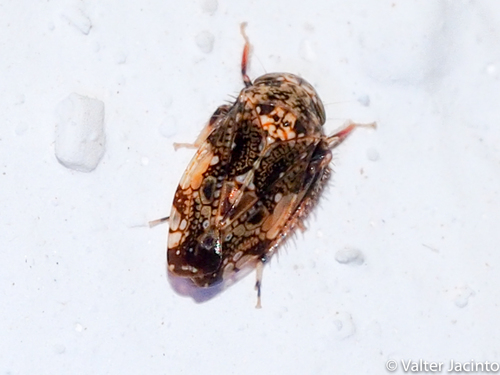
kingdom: Animalia
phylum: Arthropoda
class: Insecta
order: Hemiptera
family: Cicadellidae
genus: Penthimiola
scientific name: Penthimiola bella
